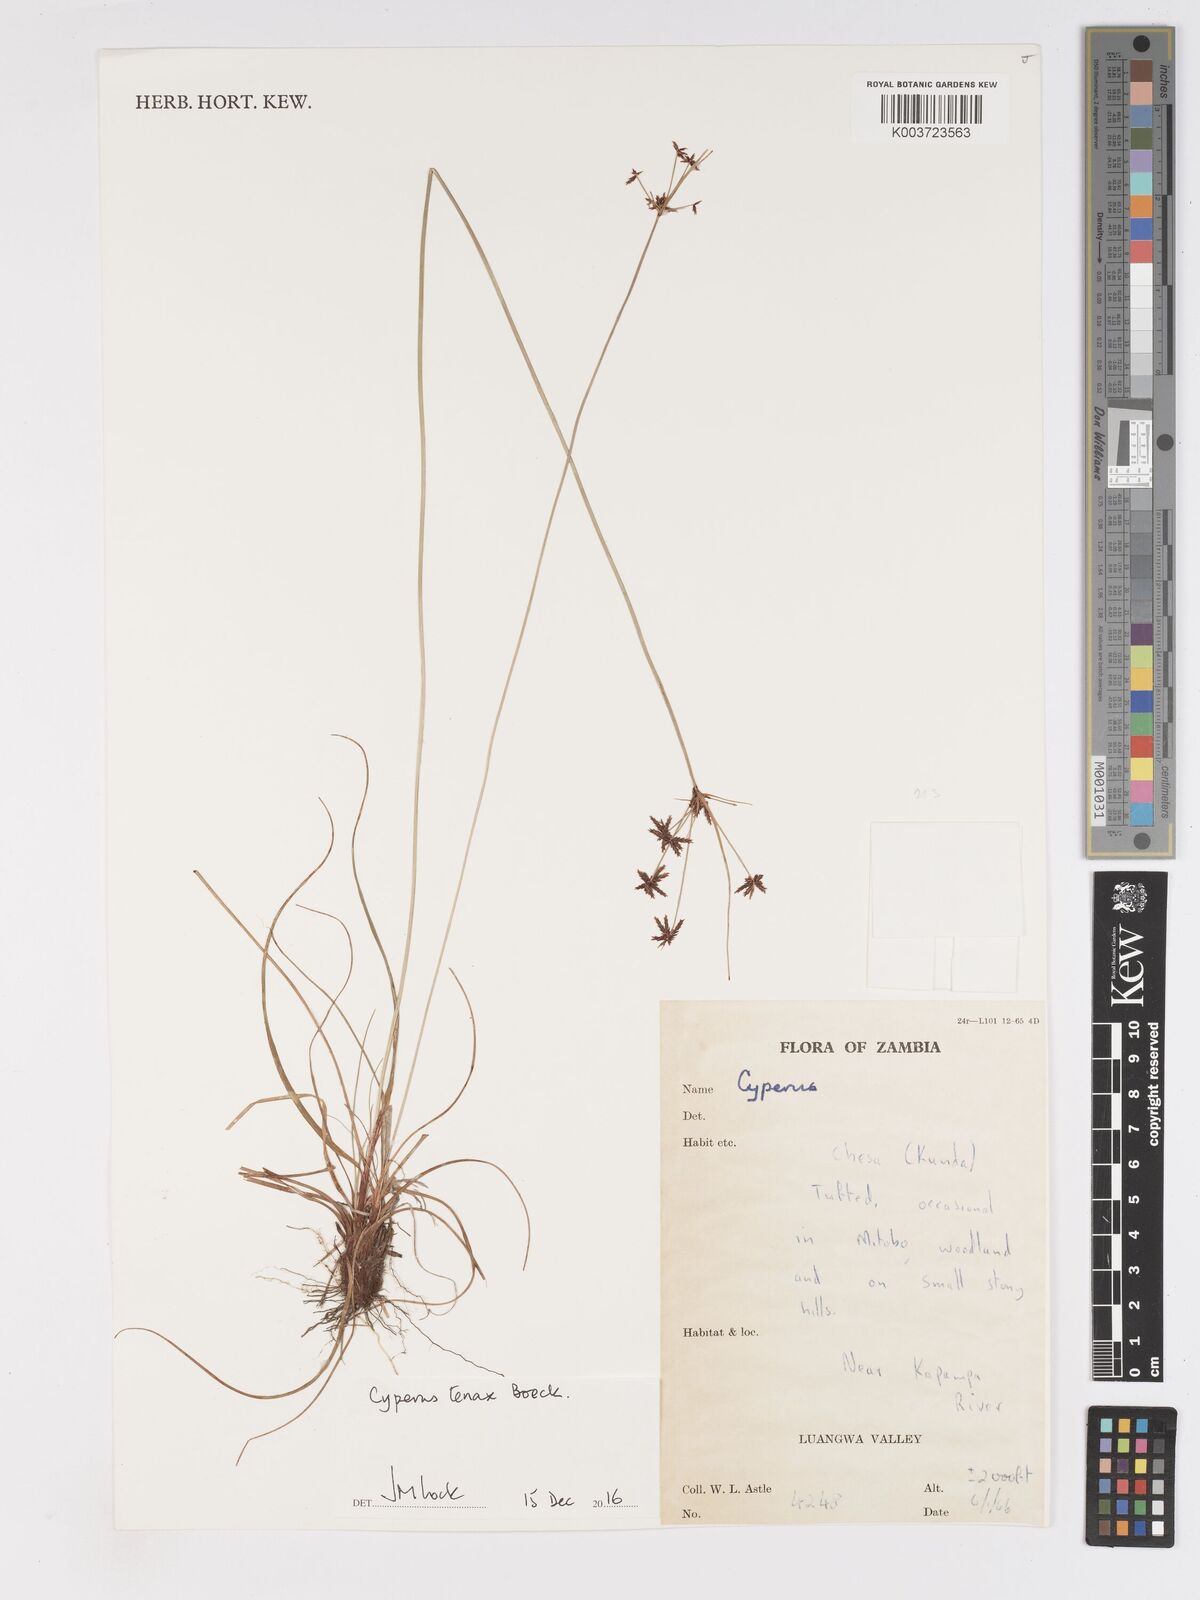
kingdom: Plantae
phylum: Tracheophyta
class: Liliopsida
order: Poales
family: Cyperaceae
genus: Cyperus
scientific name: Cyperus tenax
